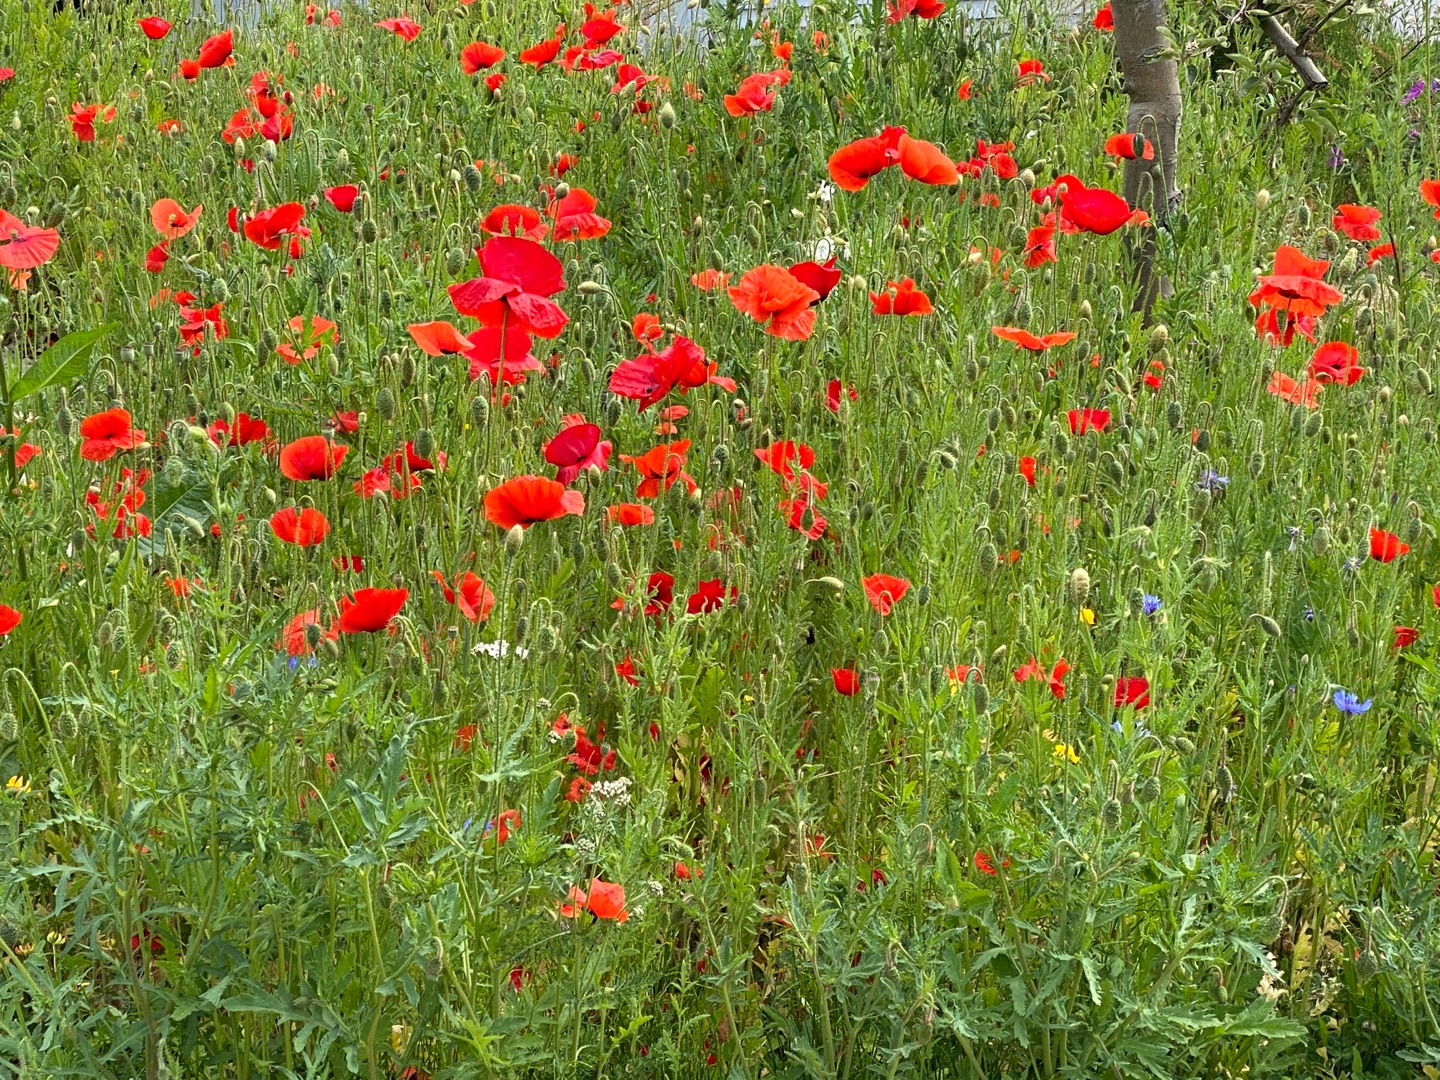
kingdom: Plantae
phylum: Tracheophyta
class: Magnoliopsida
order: Ranunculales
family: Papaveraceae
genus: Papaver
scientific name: Papaver rhoeas
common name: Korn-valmue
